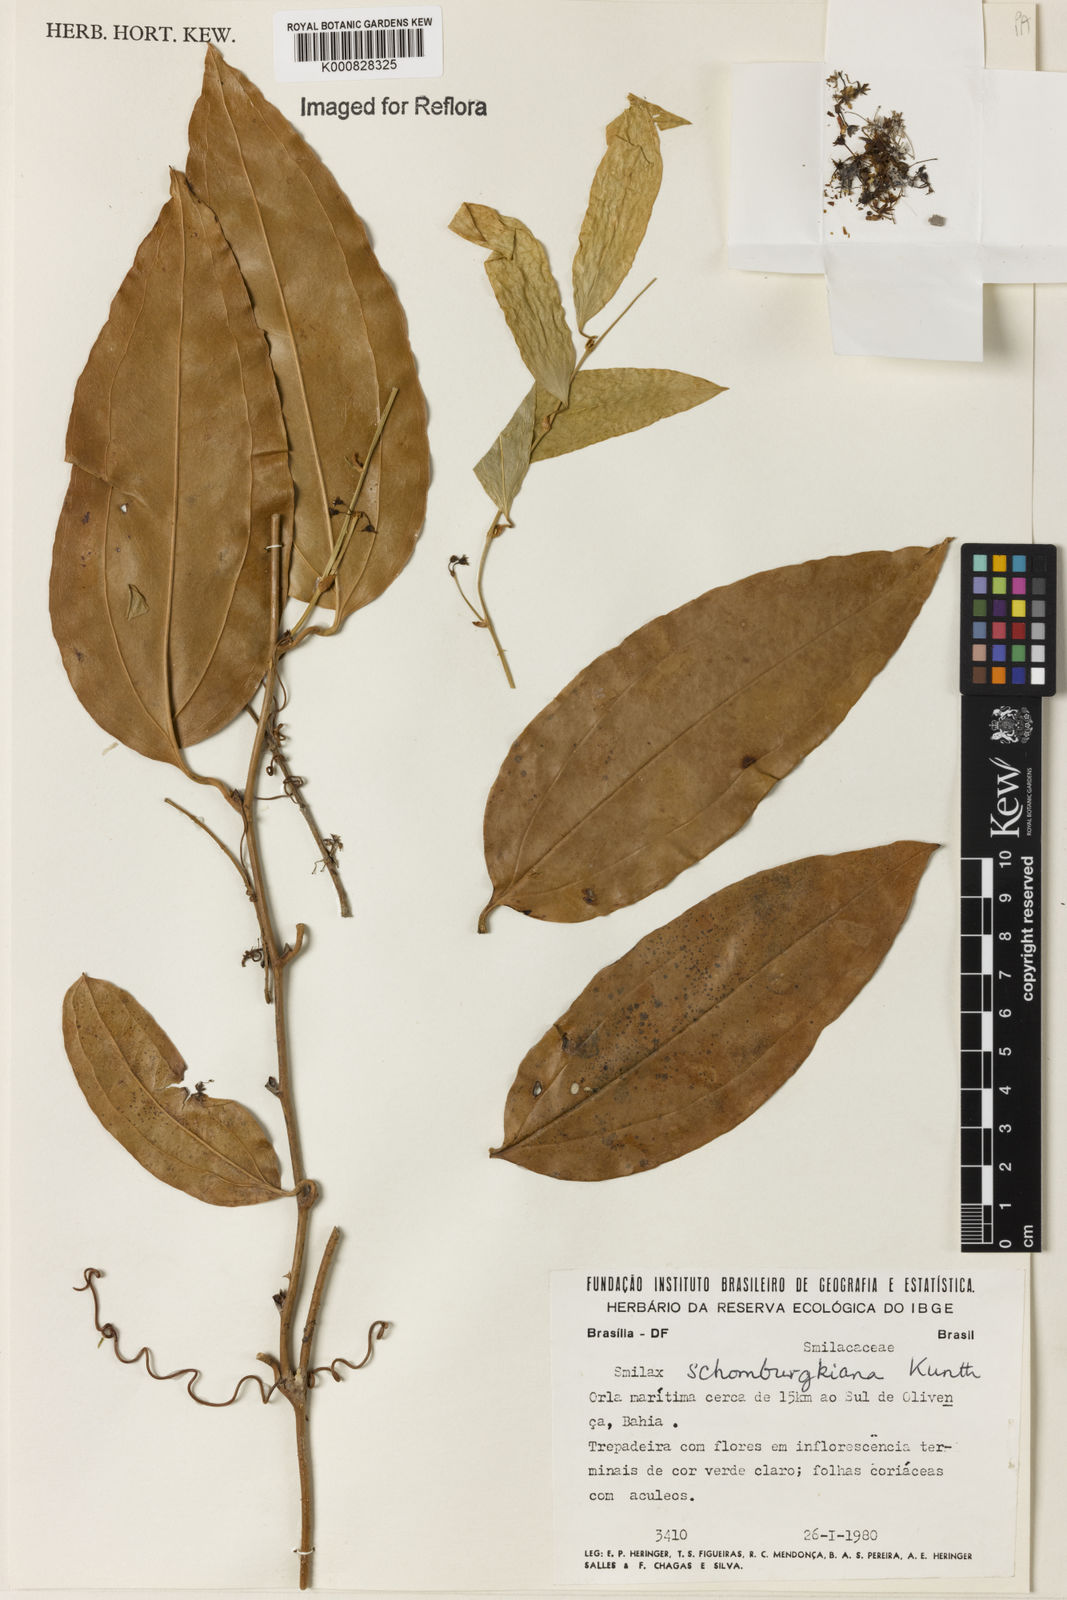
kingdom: Plantae
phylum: Tracheophyta
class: Liliopsida
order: Liliales
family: Smilacaceae
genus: Smilax
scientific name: Smilax schomburgkiana
